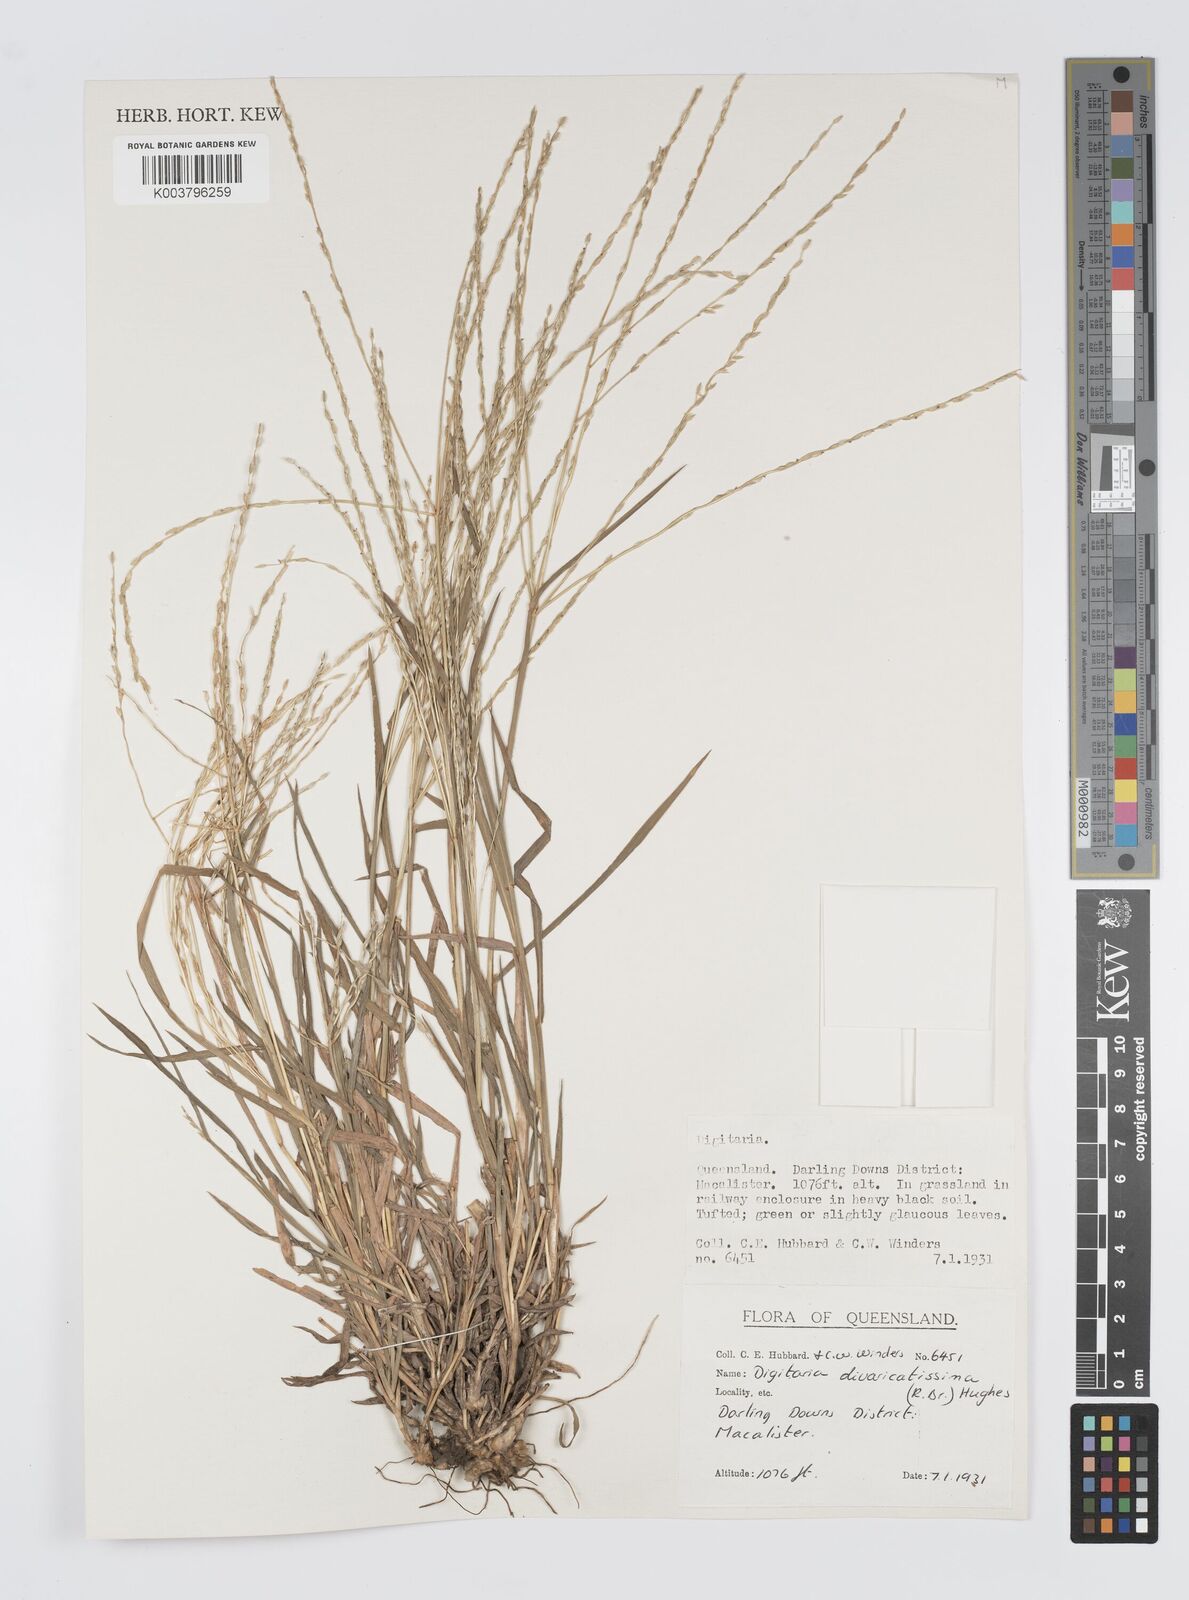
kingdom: Plantae
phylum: Tracheophyta
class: Liliopsida
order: Poales
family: Poaceae
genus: Digitaria
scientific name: Digitaria divaricatissima
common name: Crabgrass
